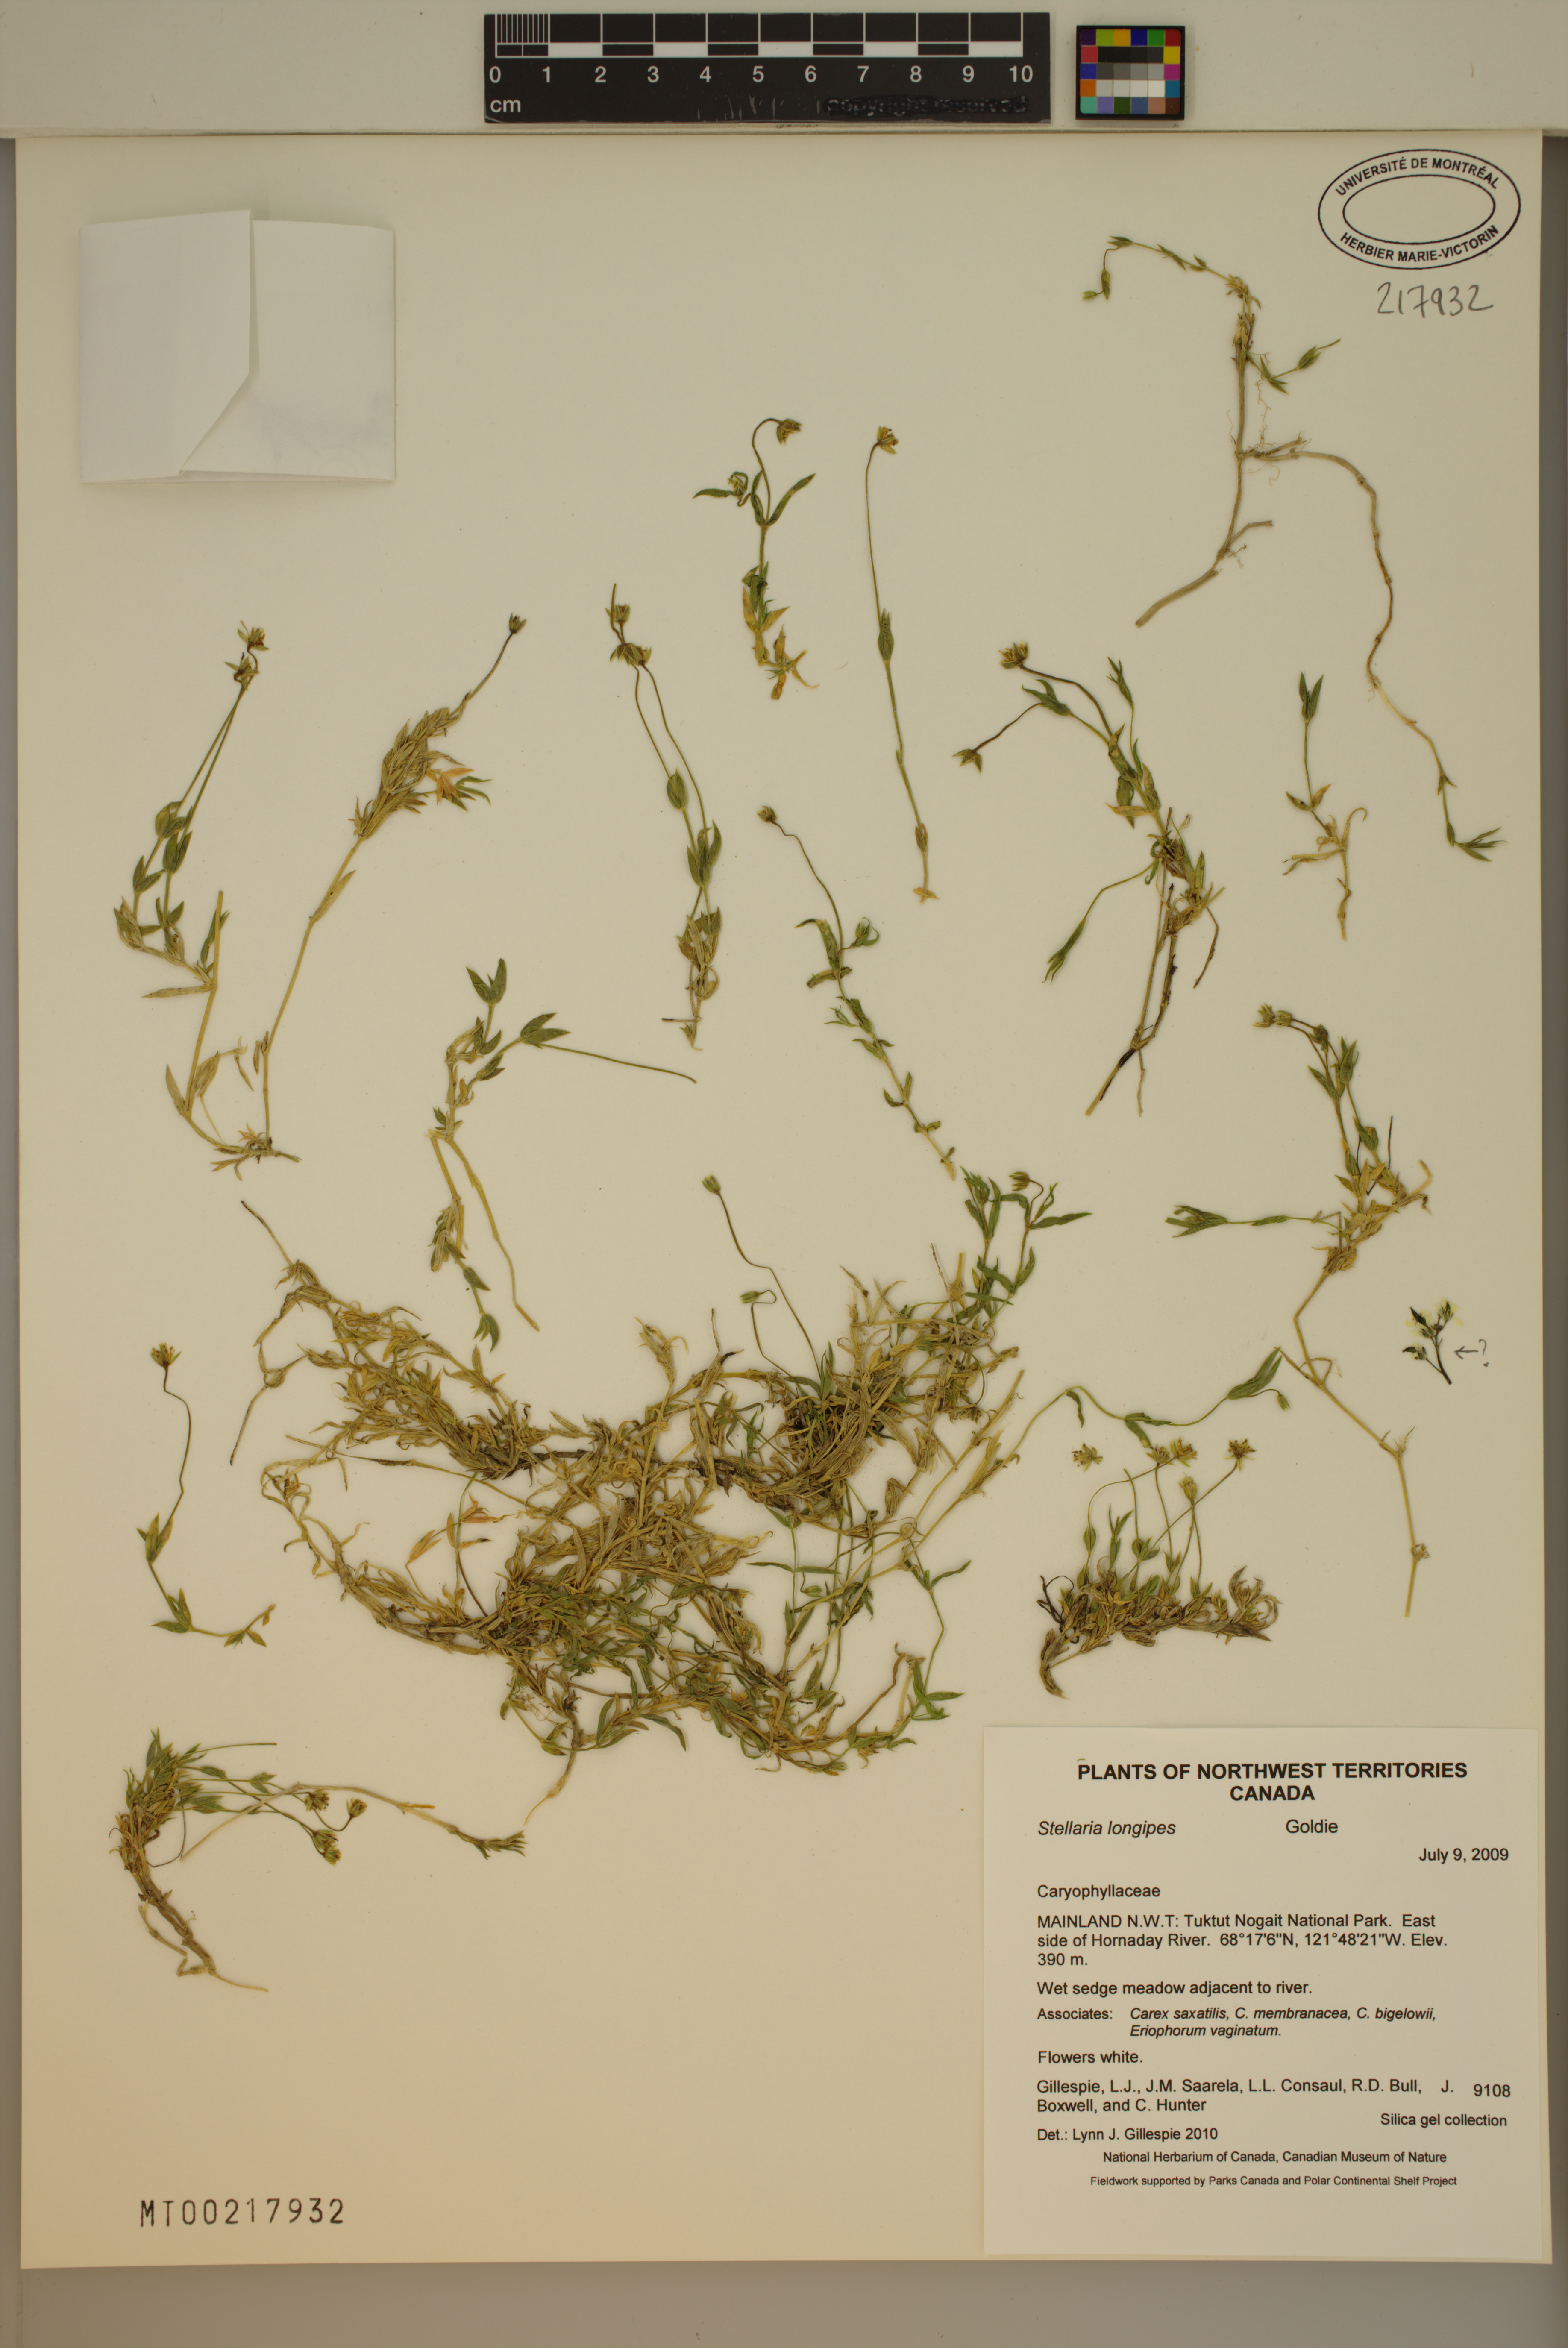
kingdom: Plantae
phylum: Tracheophyta
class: Magnoliopsida
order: Caryophyllales
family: Caryophyllaceae
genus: Stellaria
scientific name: Stellaria longipes
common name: Goldie's starwort
